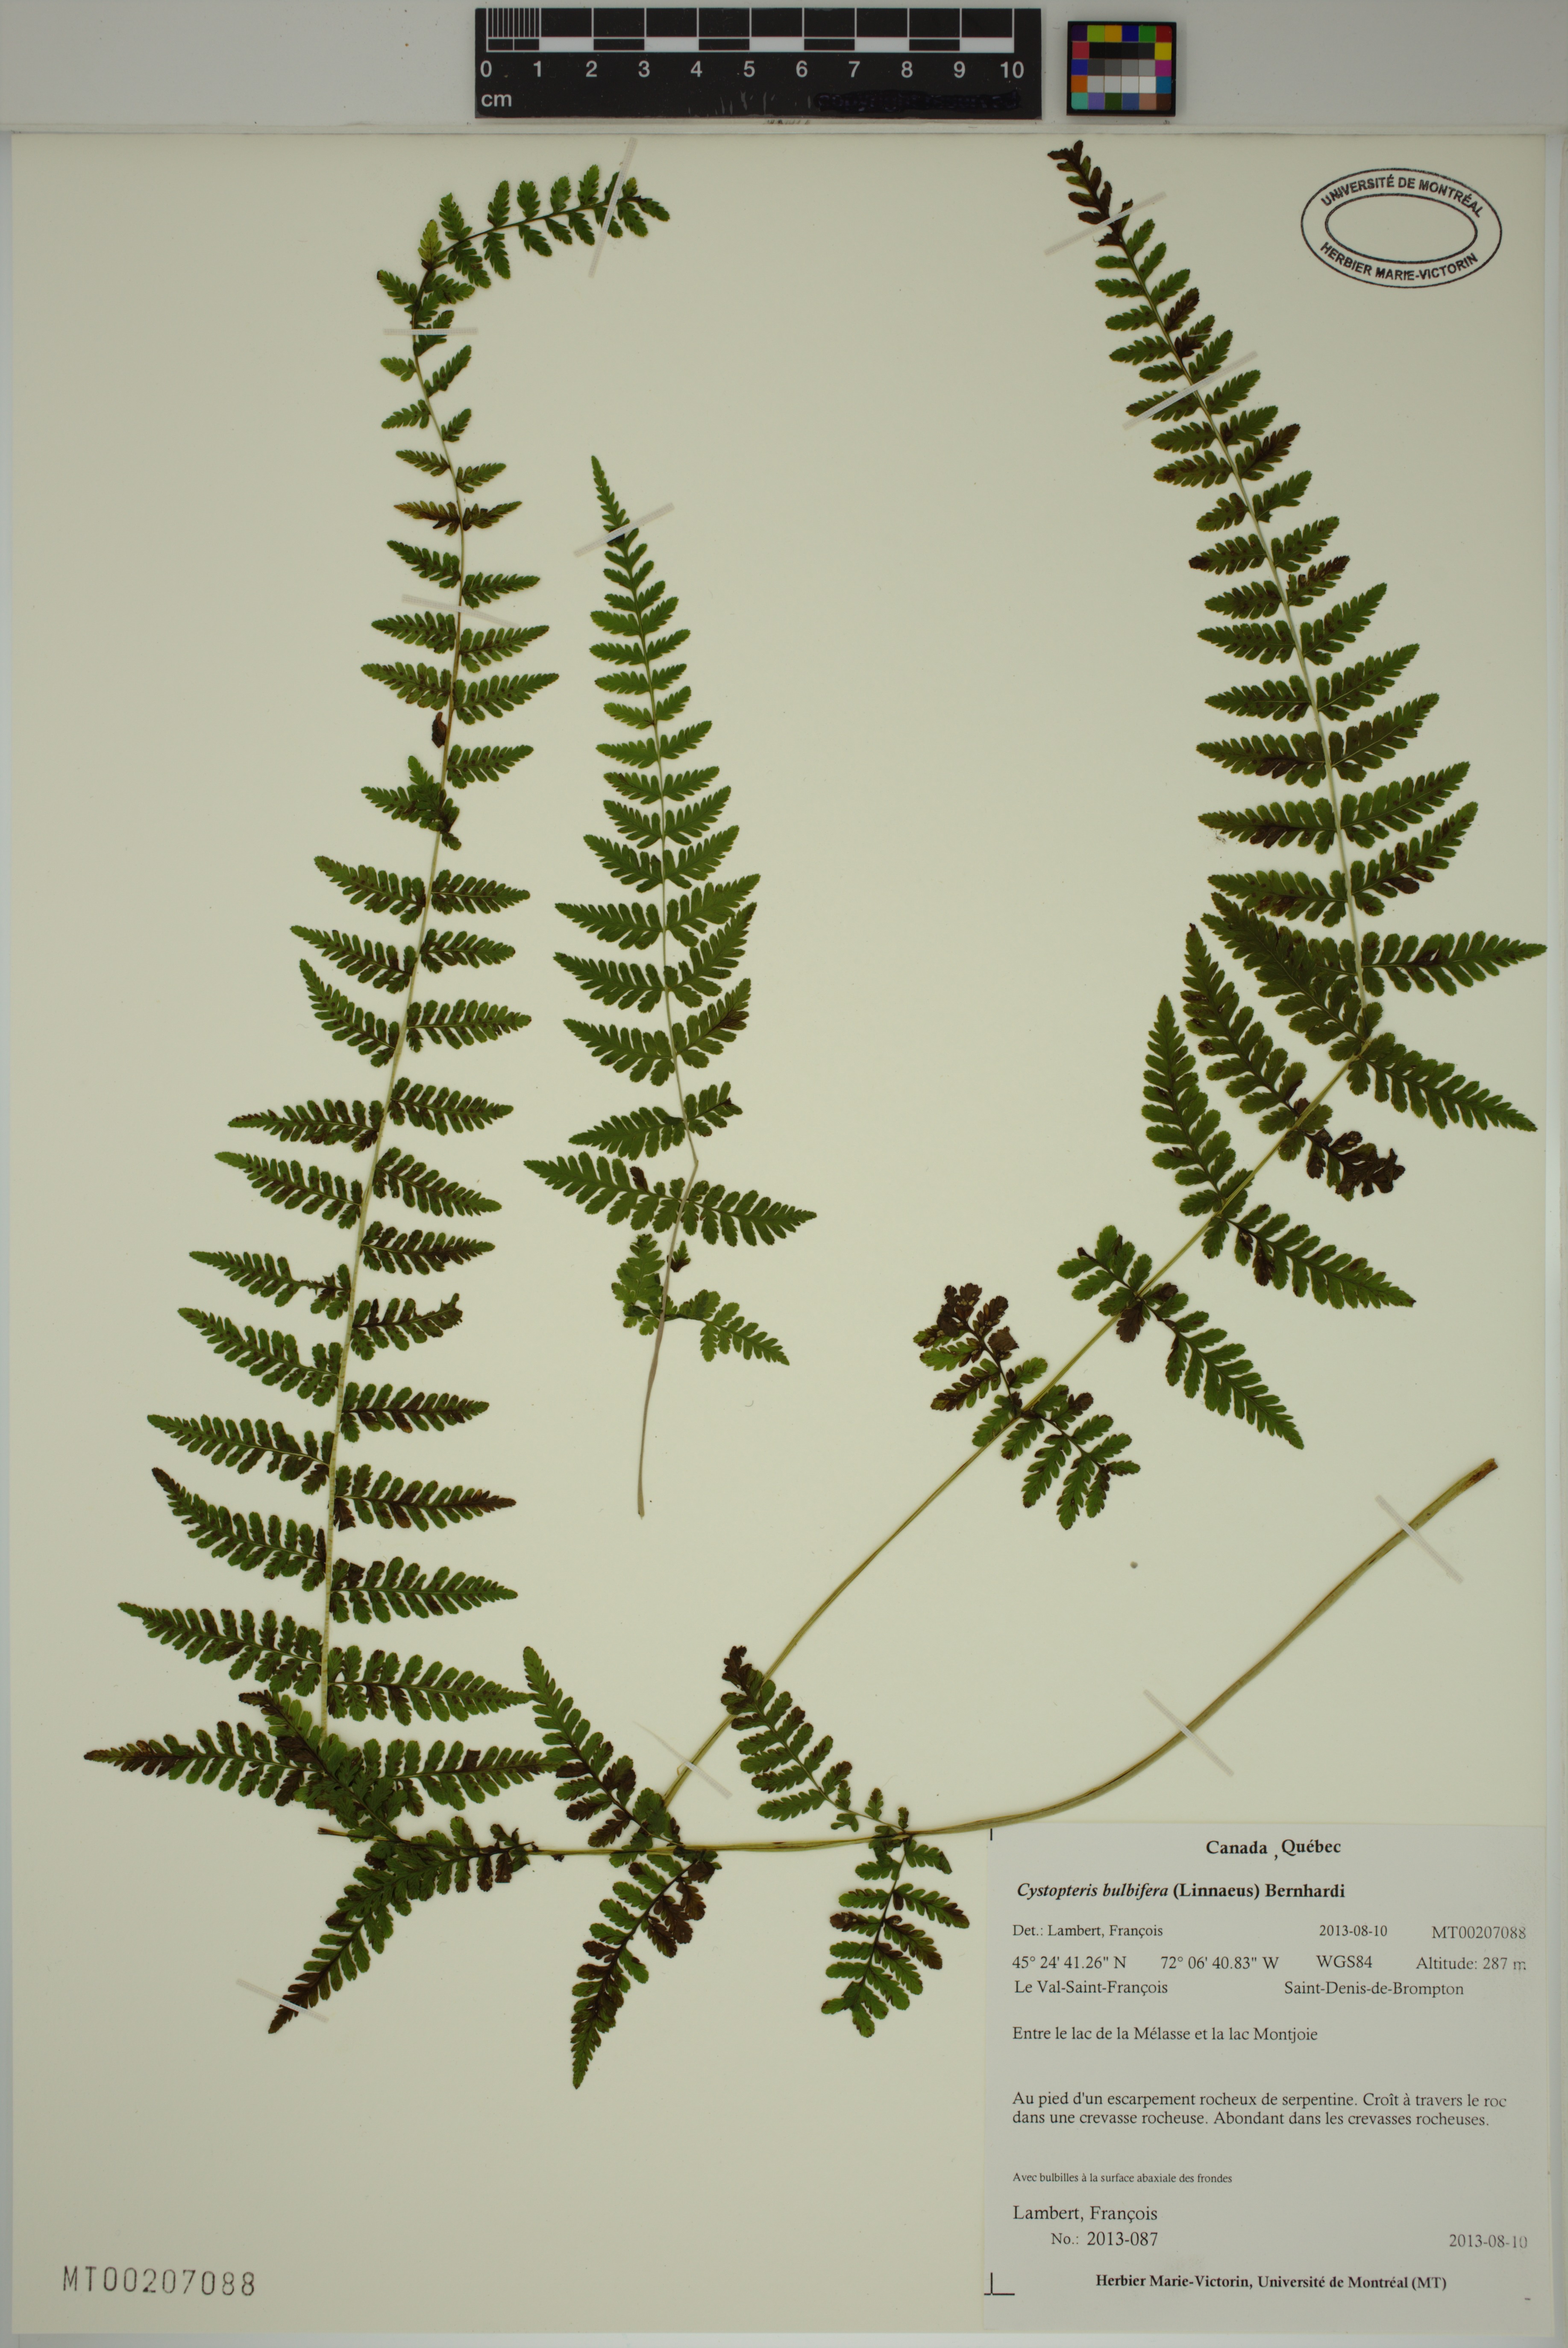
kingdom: Plantae
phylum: Tracheophyta
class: Polypodiopsida
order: Polypodiales
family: Cystopteridaceae
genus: Cystopteris
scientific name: Cystopteris bulbifera
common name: Bulblet bladder fern
